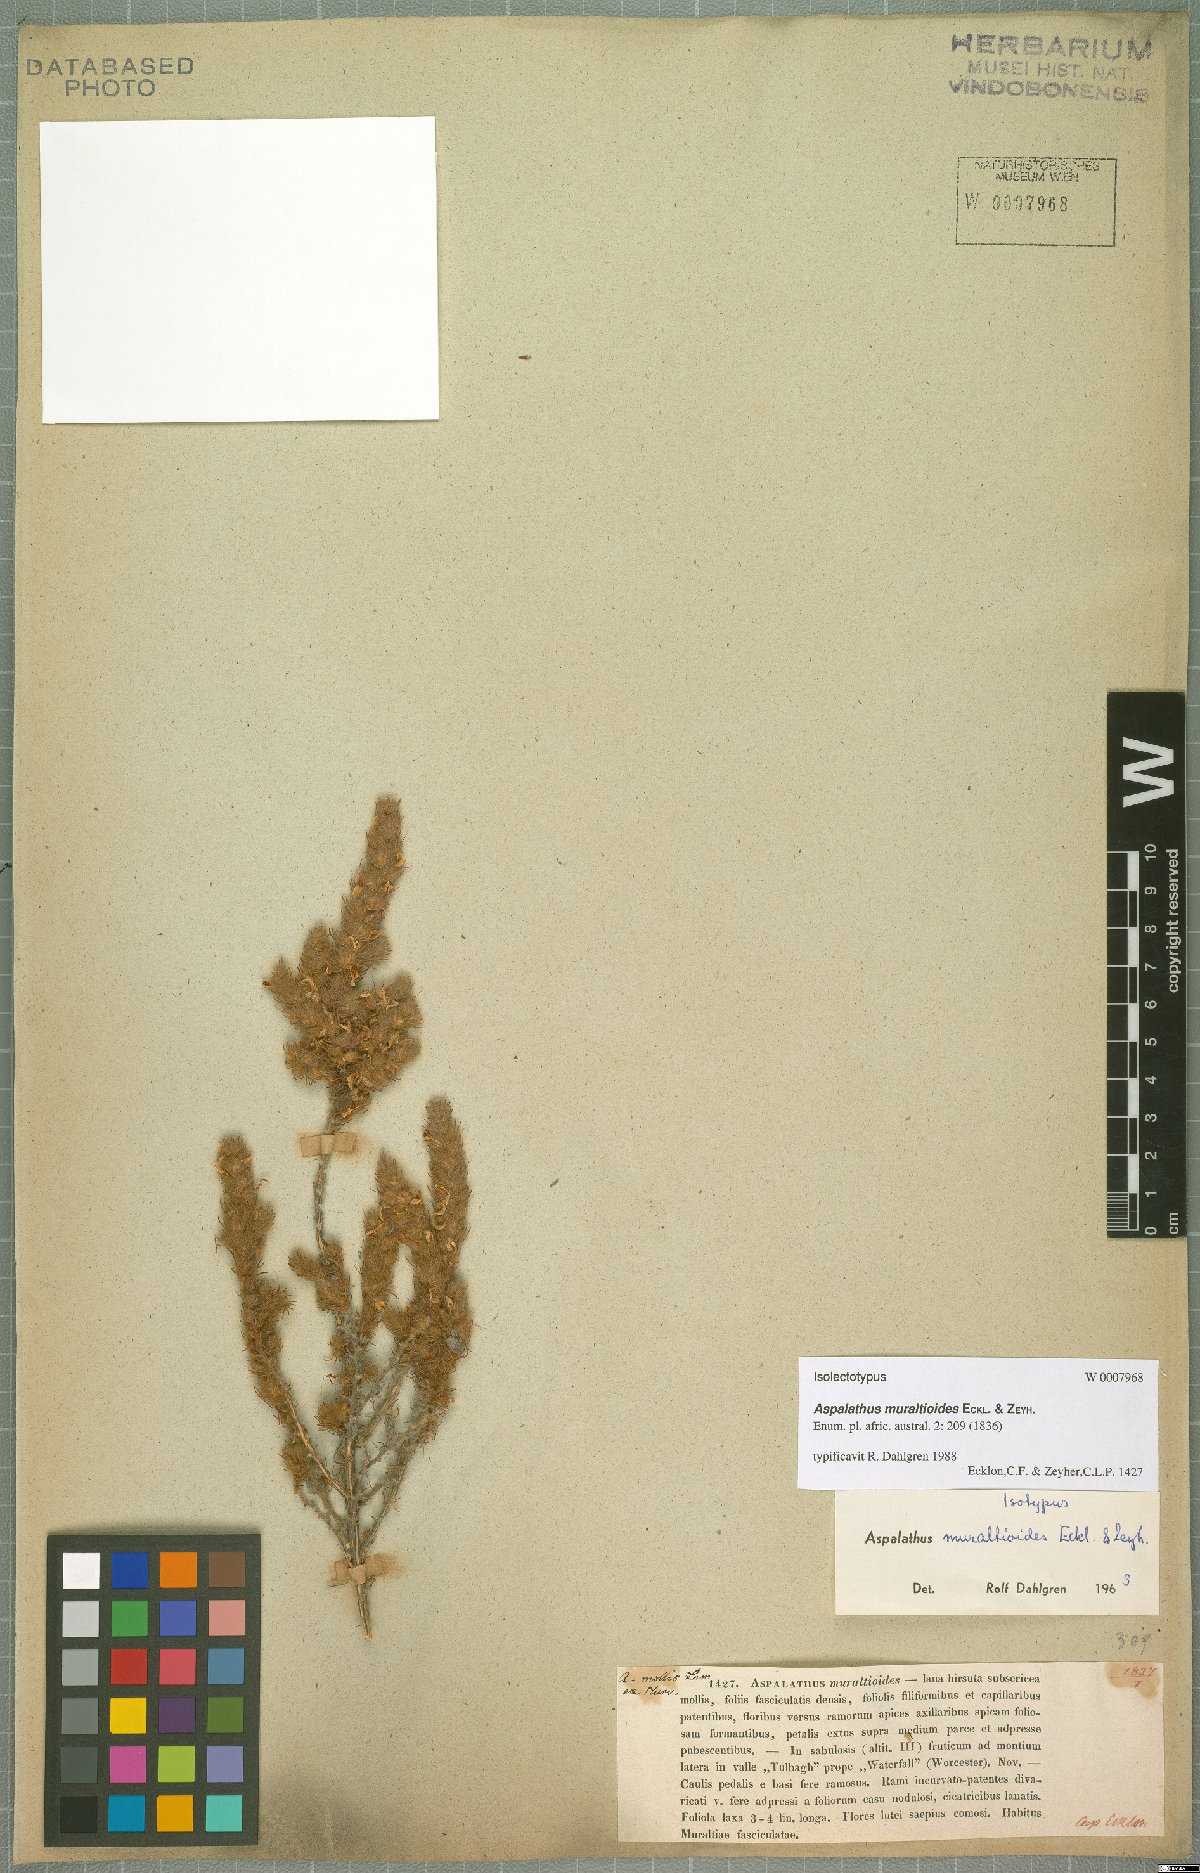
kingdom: Plantae
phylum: Tracheophyta
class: Magnoliopsida
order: Fabales
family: Fabaceae
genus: Aspalathus
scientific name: Aspalathus muraltioides
